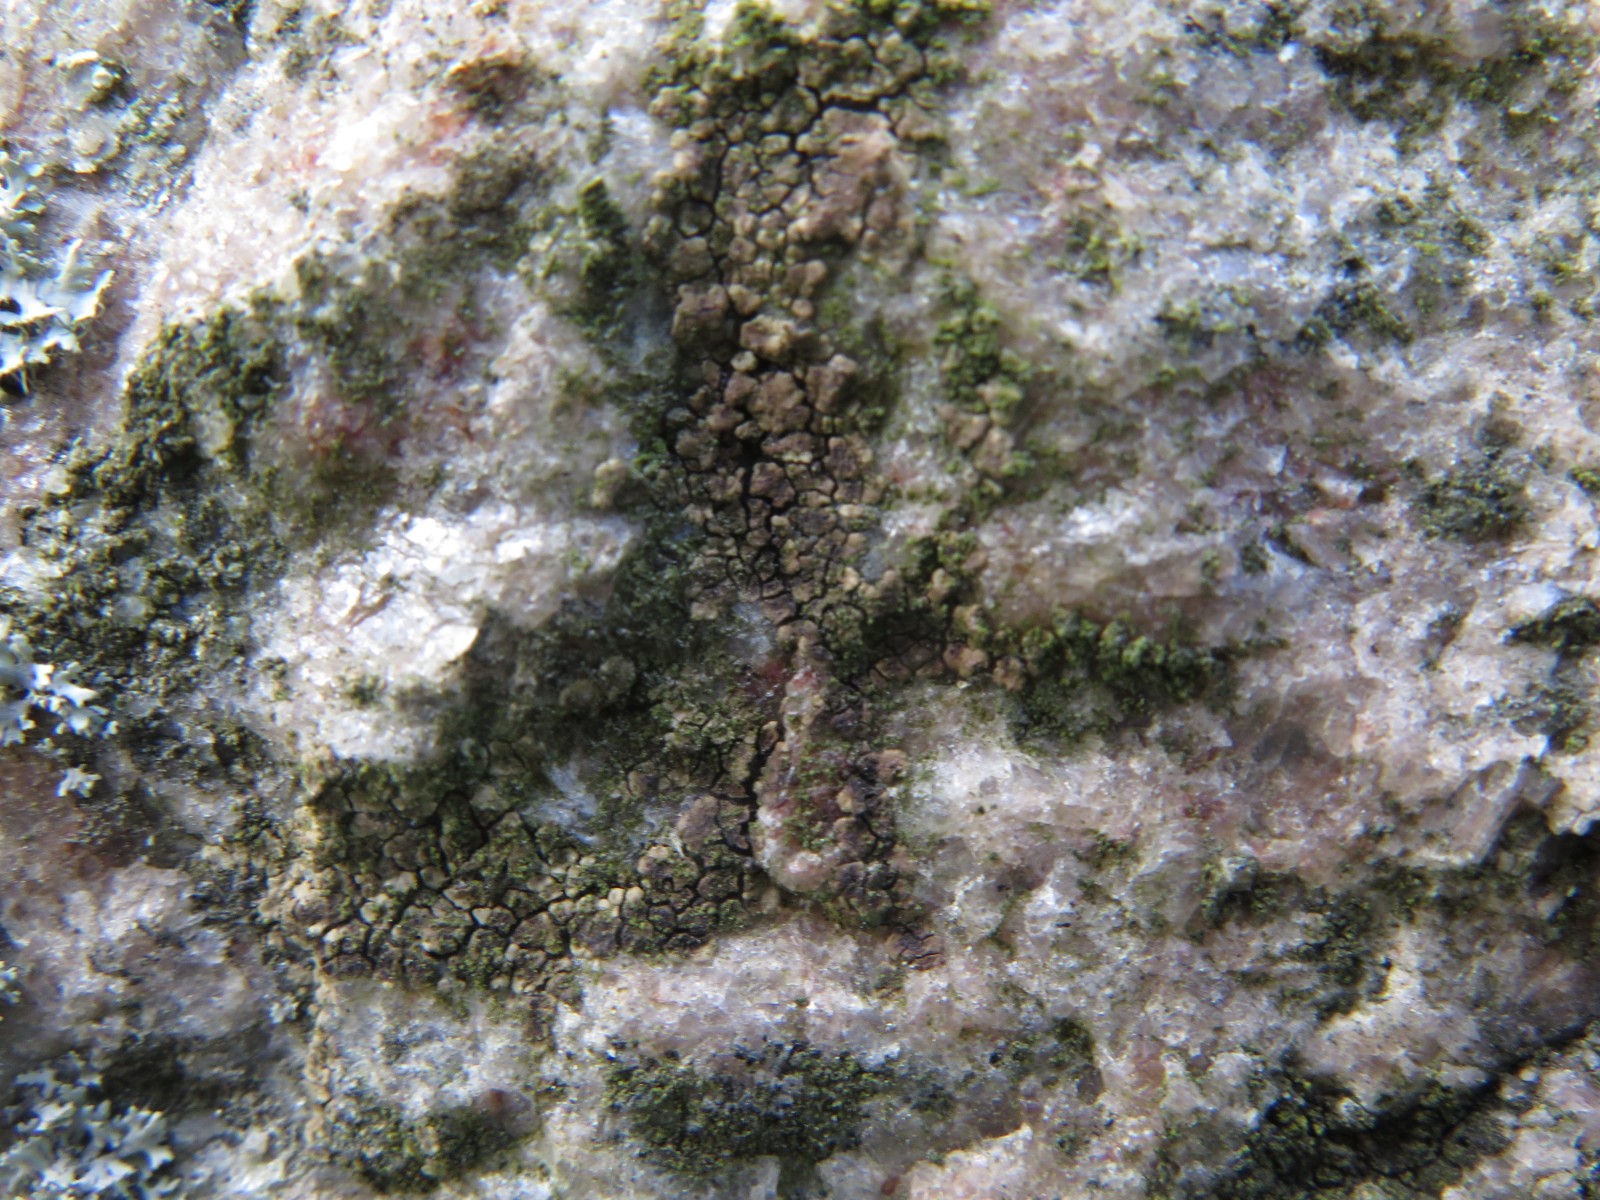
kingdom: Fungi
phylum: Ascomycota
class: Lecanoromycetes
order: Acarosporales
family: Acarosporaceae
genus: Acarospora
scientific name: Acarospora fuscata
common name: brun småsporelav
